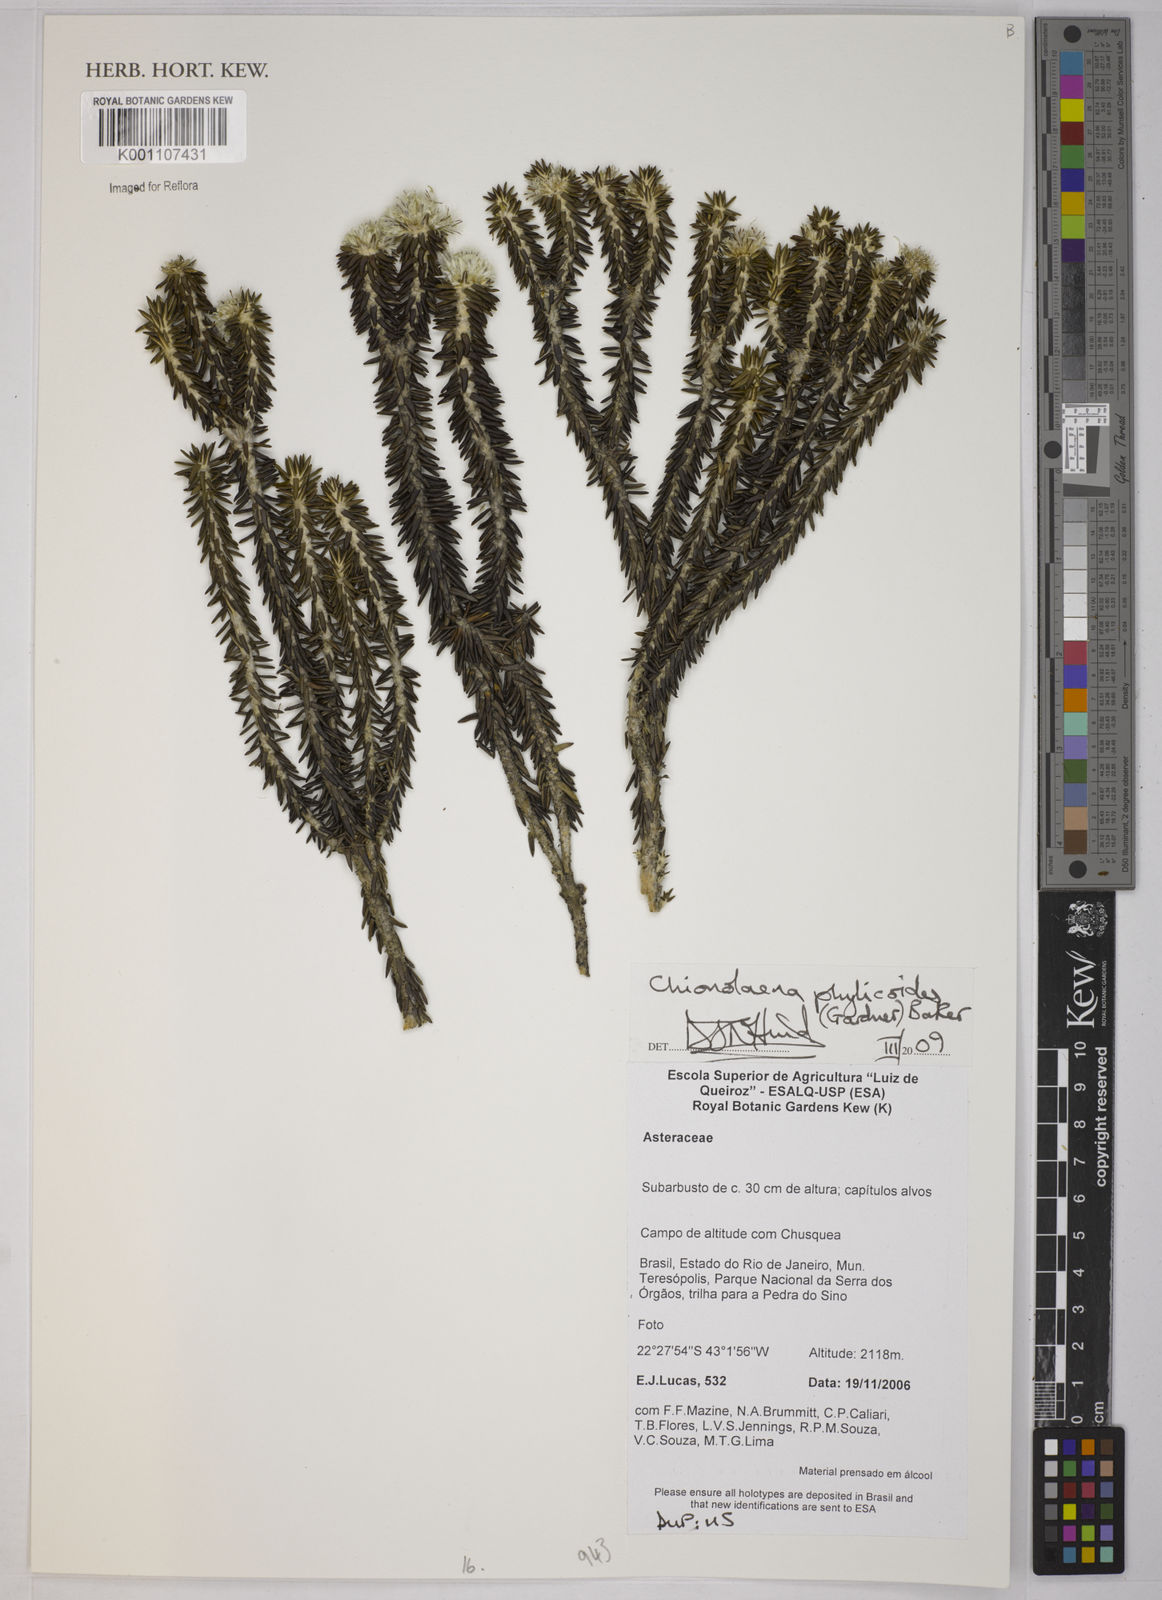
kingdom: Plantae
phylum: Tracheophyta
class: Magnoliopsida
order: Asterales
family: Asteraceae
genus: Chionolaena
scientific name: Chionolaena phylicoides
